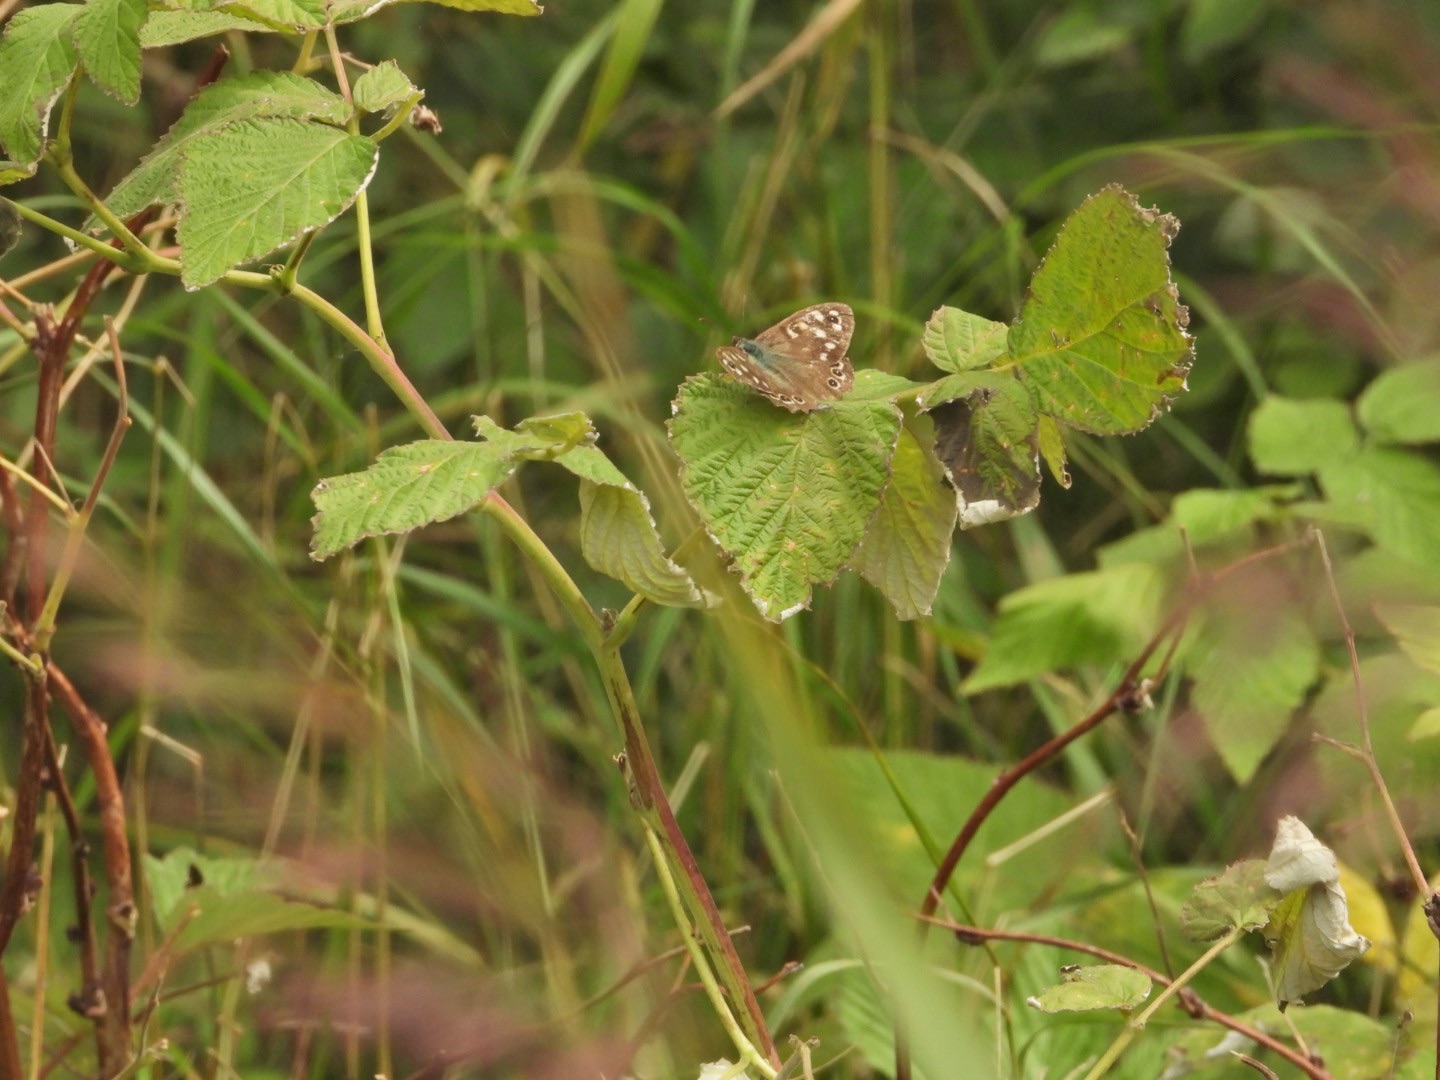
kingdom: Animalia
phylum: Arthropoda
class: Insecta
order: Lepidoptera
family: Nymphalidae
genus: Pararge
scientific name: Pararge aegeria
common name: Skovrandøje
